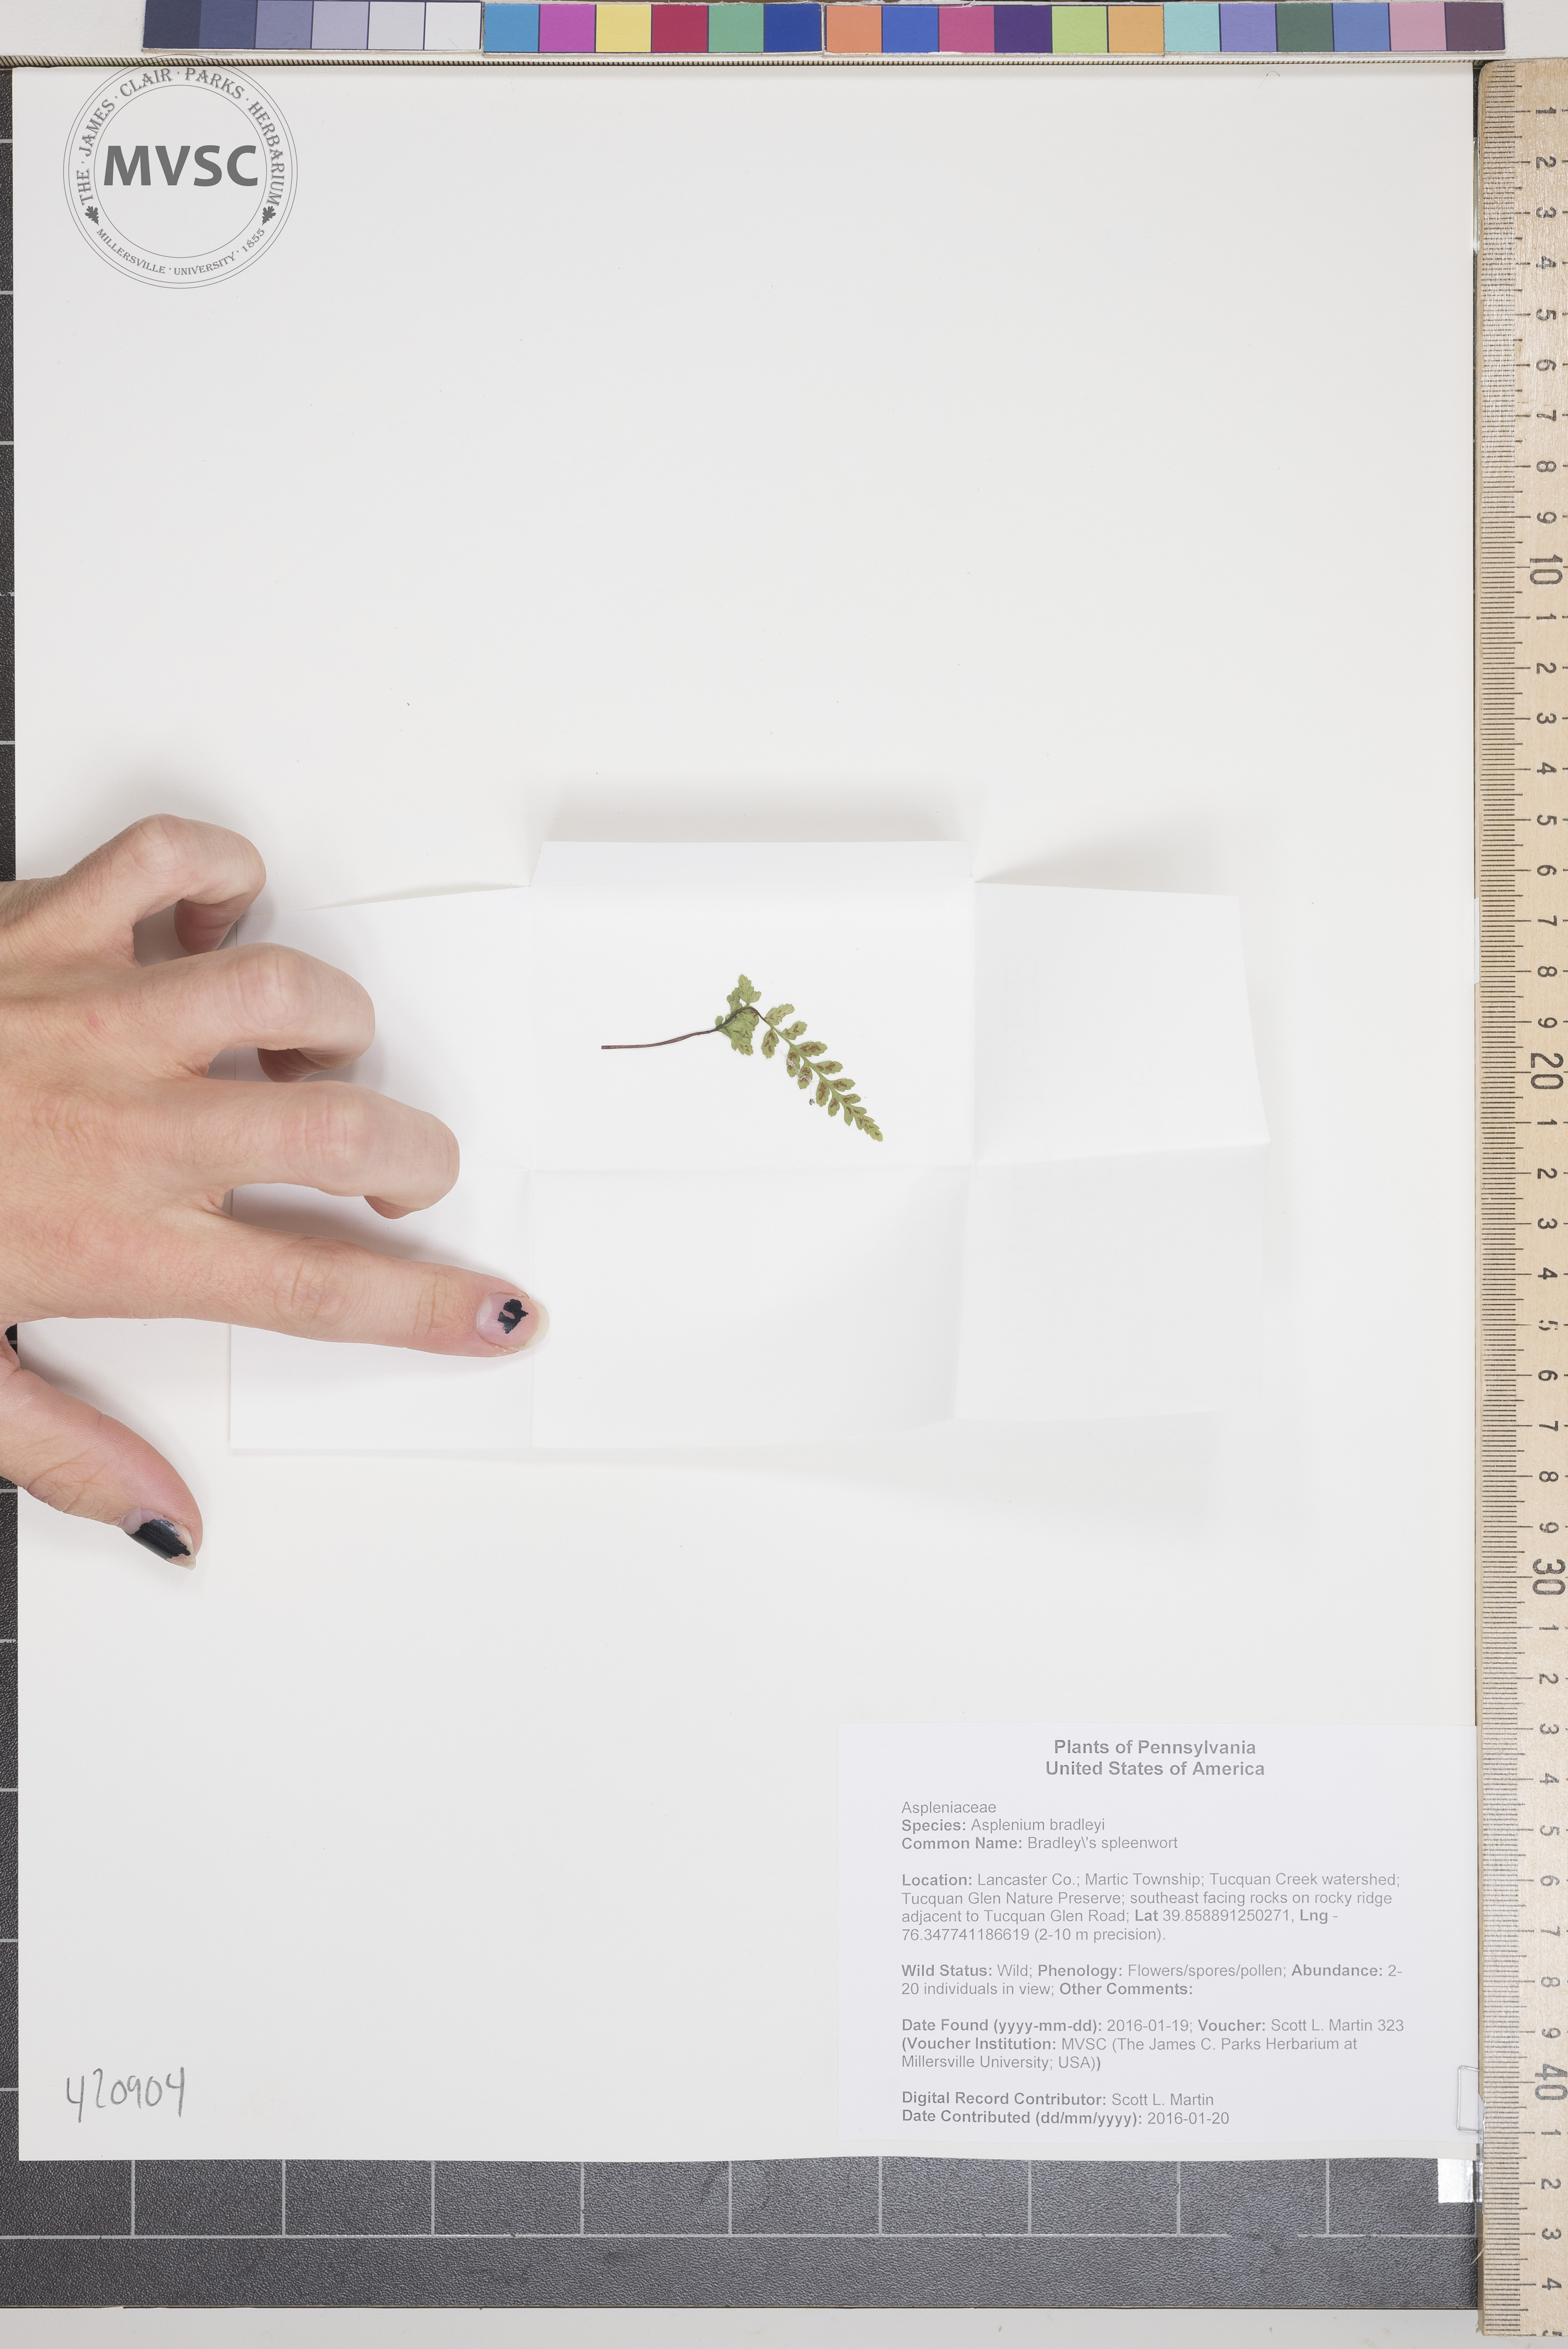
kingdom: Plantae
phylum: Tracheophyta
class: Polypodiopsida
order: Polypodiales
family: Aspleniaceae
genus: Asplenium
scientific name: Asplenium bradleyi
